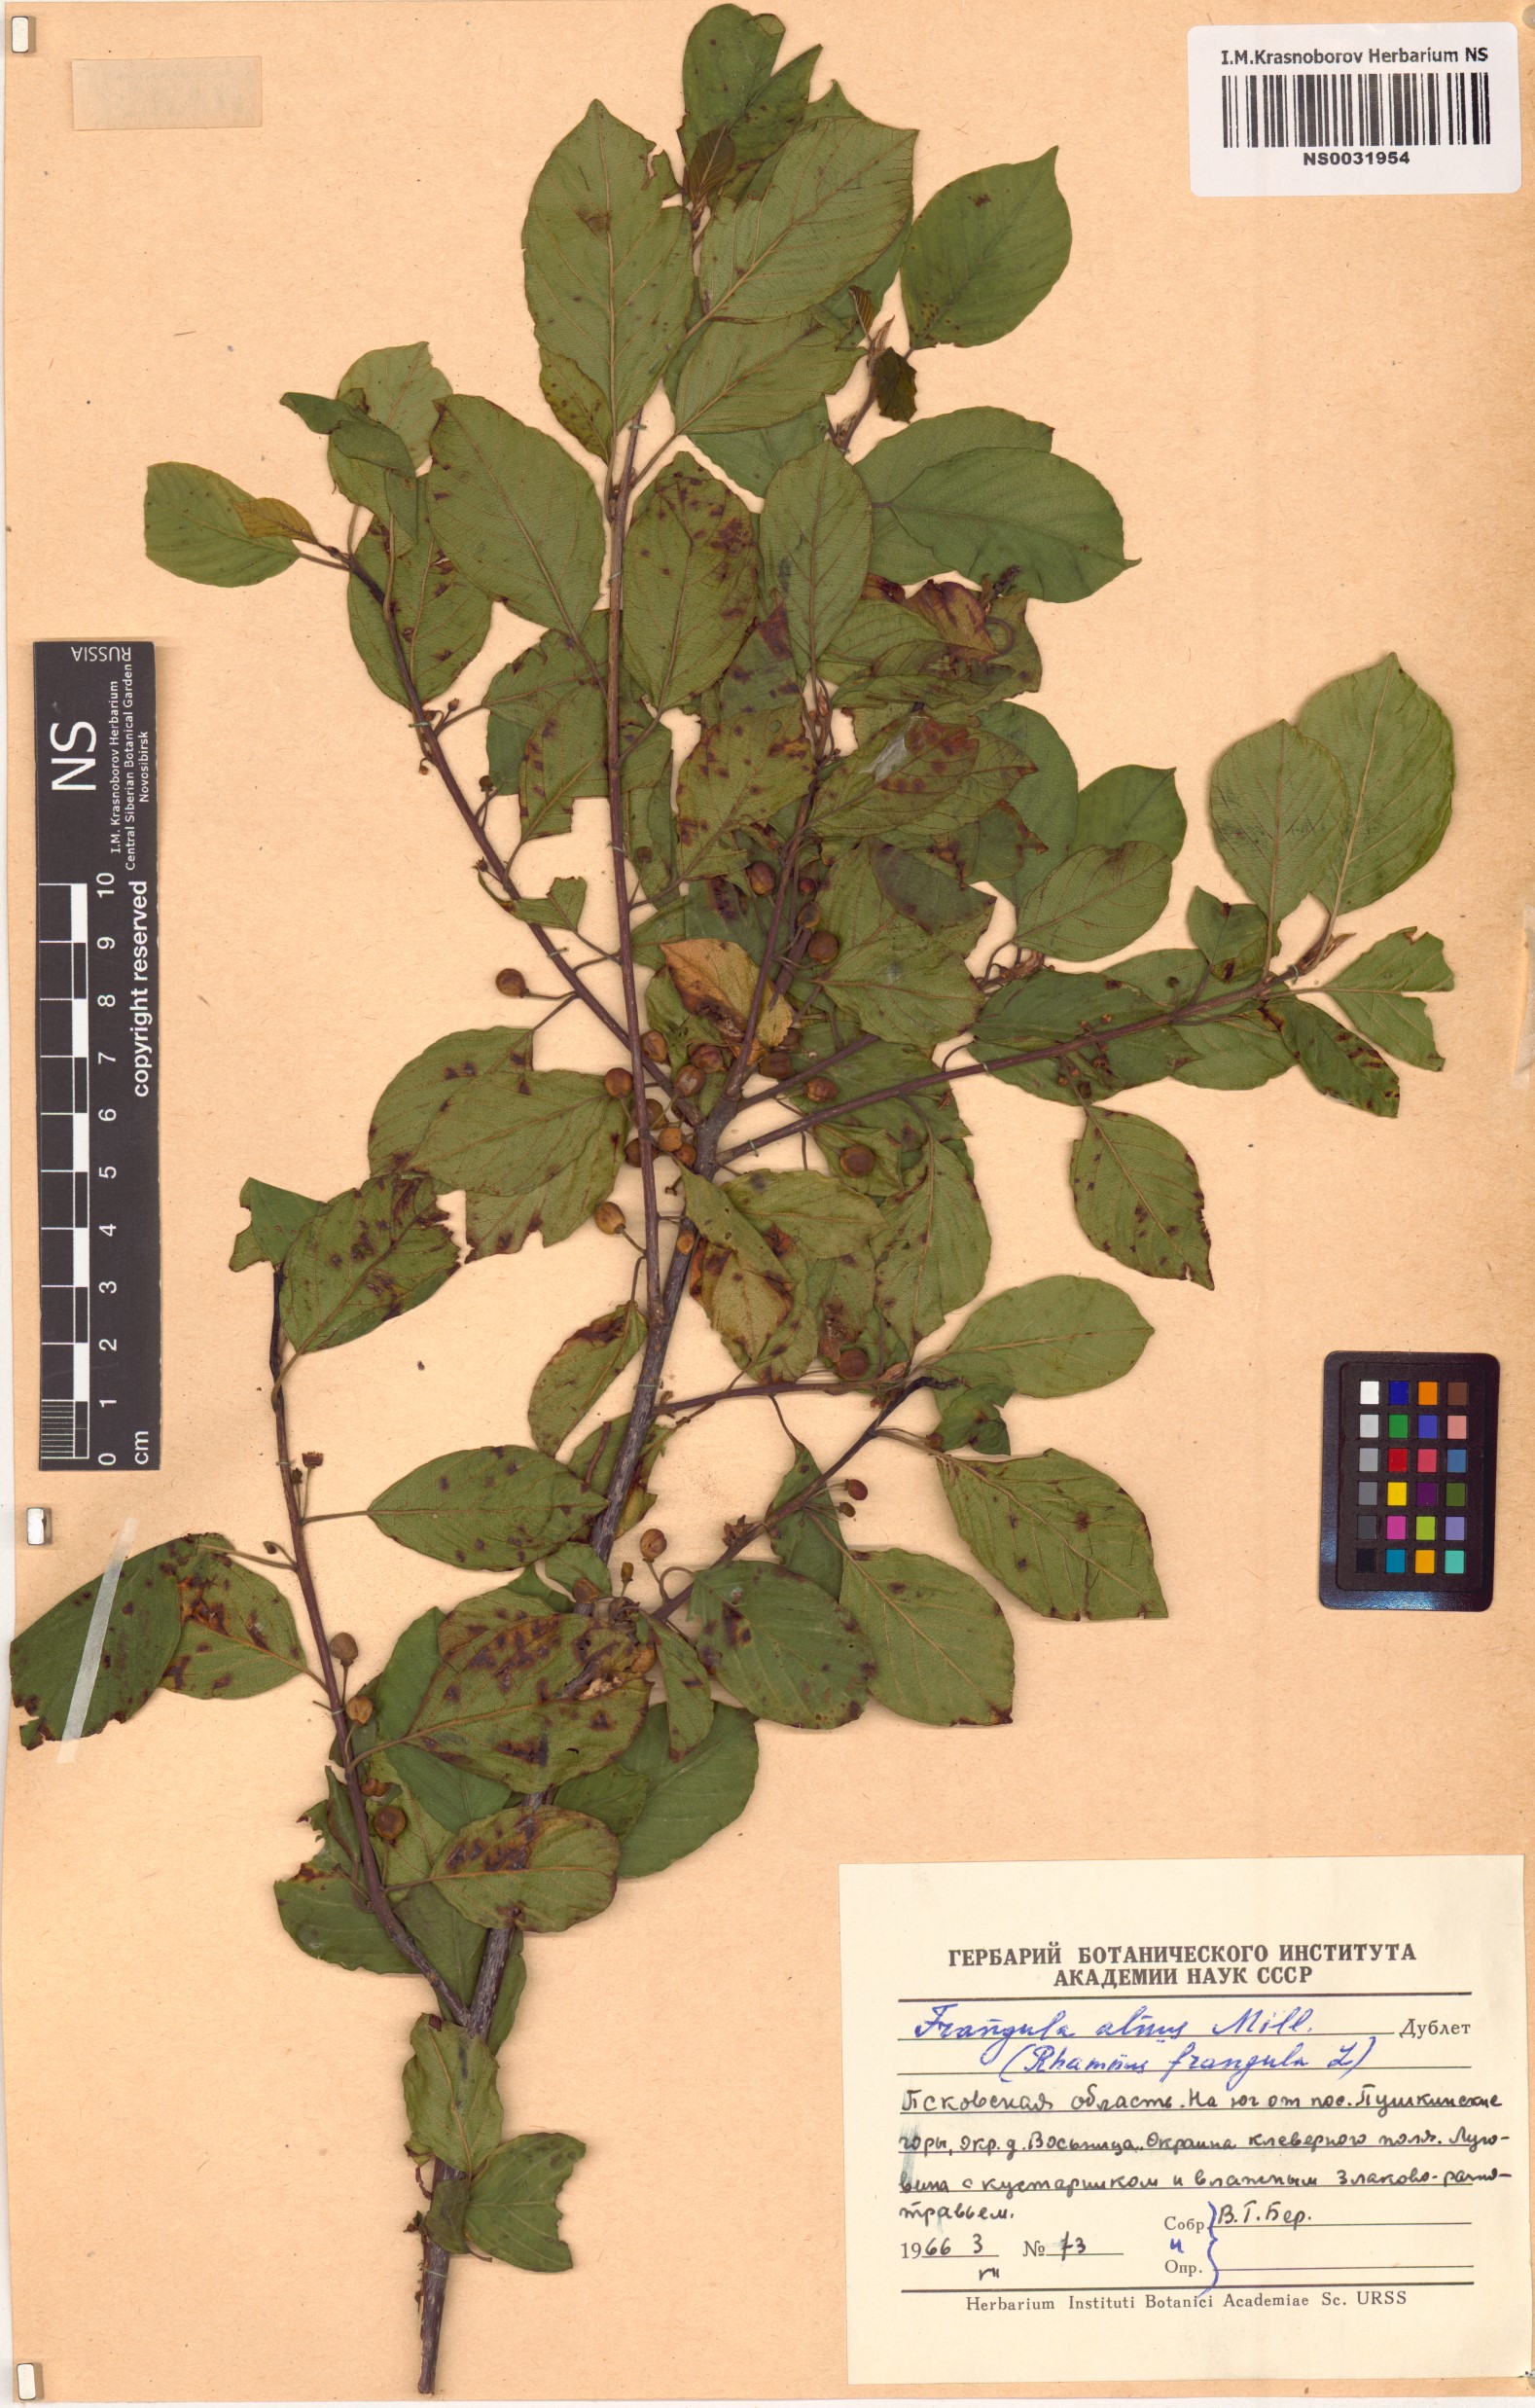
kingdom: Plantae
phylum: Tracheophyta
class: Magnoliopsida
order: Rosales
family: Rhamnaceae
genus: Frangula
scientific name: Frangula alnus
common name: Alder buckthorn
